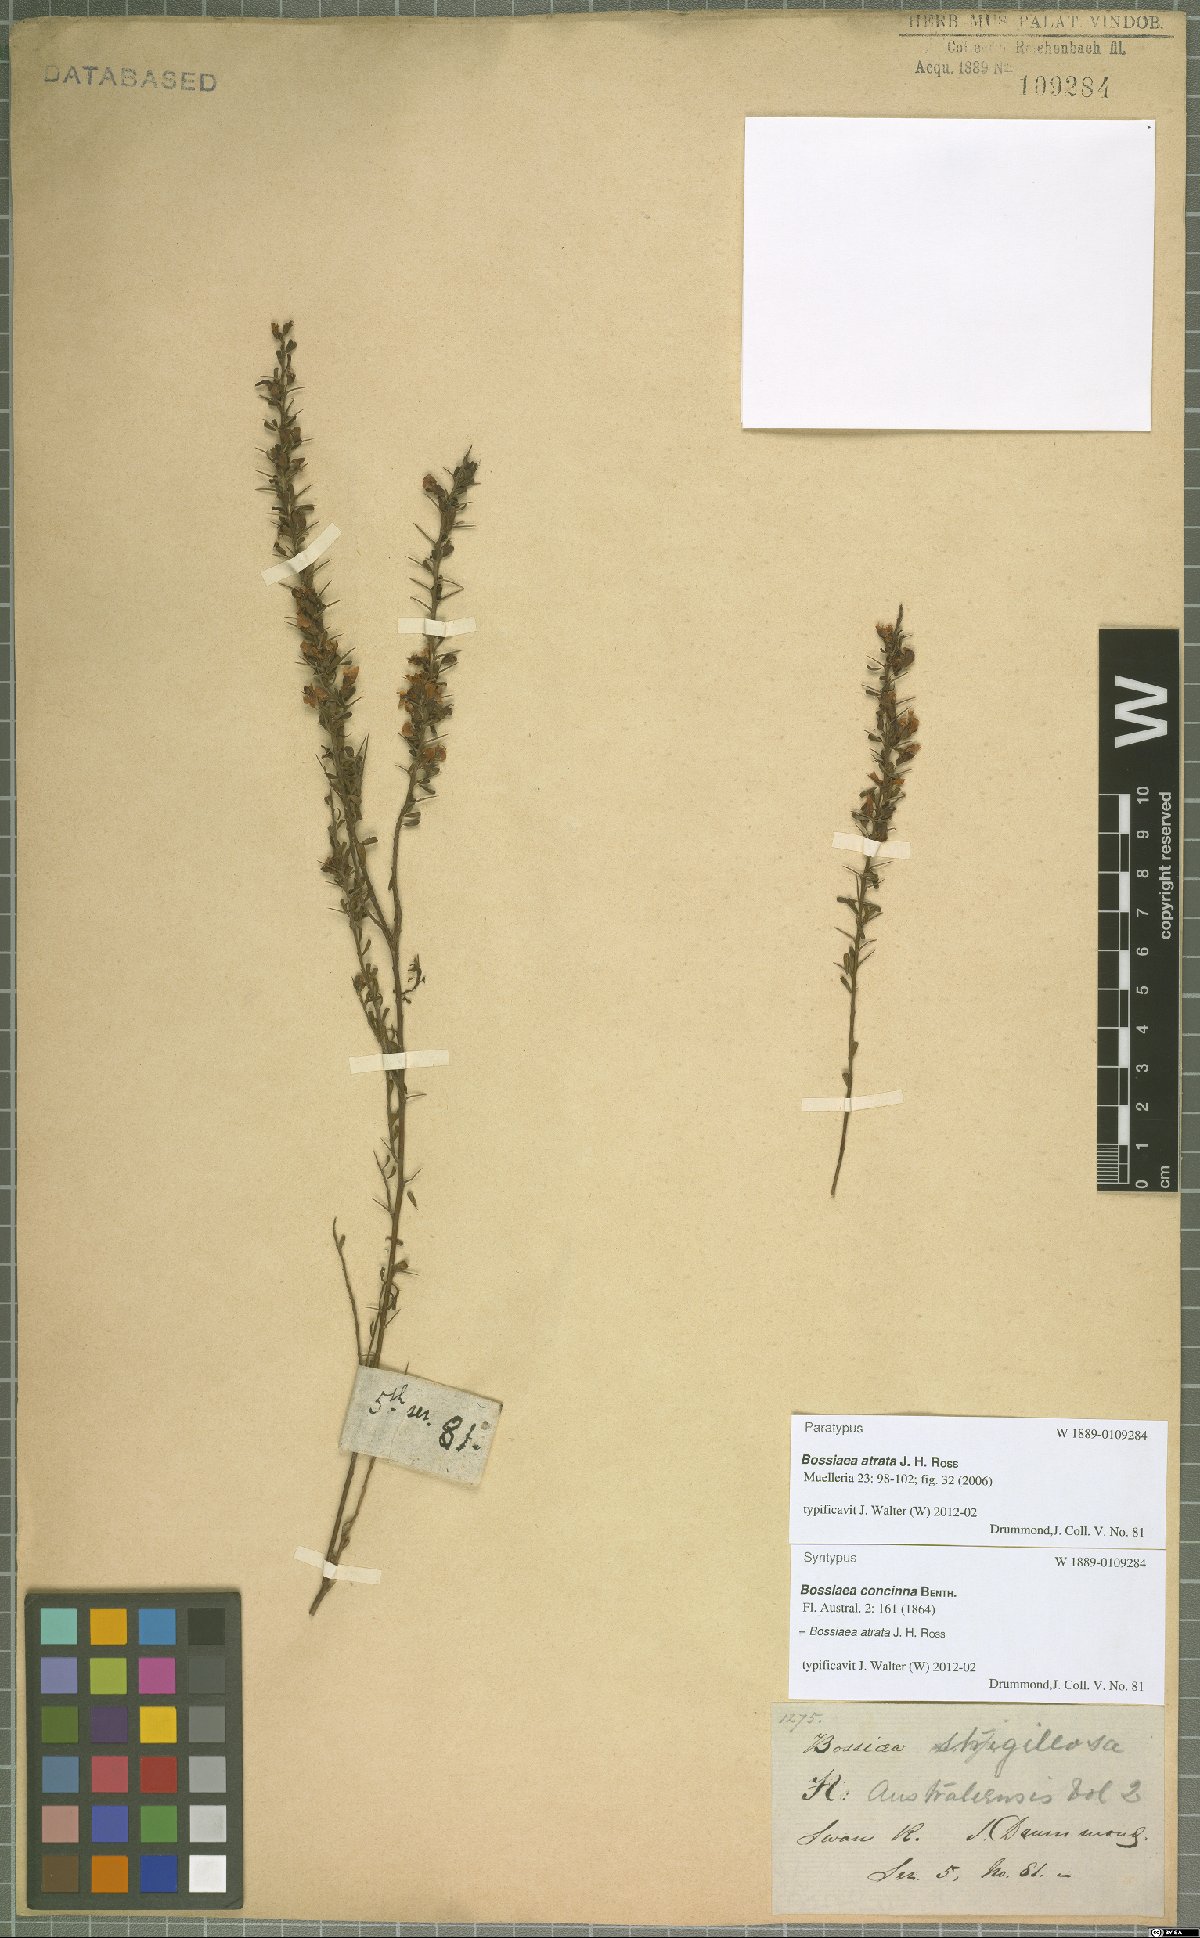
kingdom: Plantae
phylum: Tracheophyta
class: Magnoliopsida
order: Fabales
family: Fabaceae
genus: Bossiaea
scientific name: Bossiaea atrata
